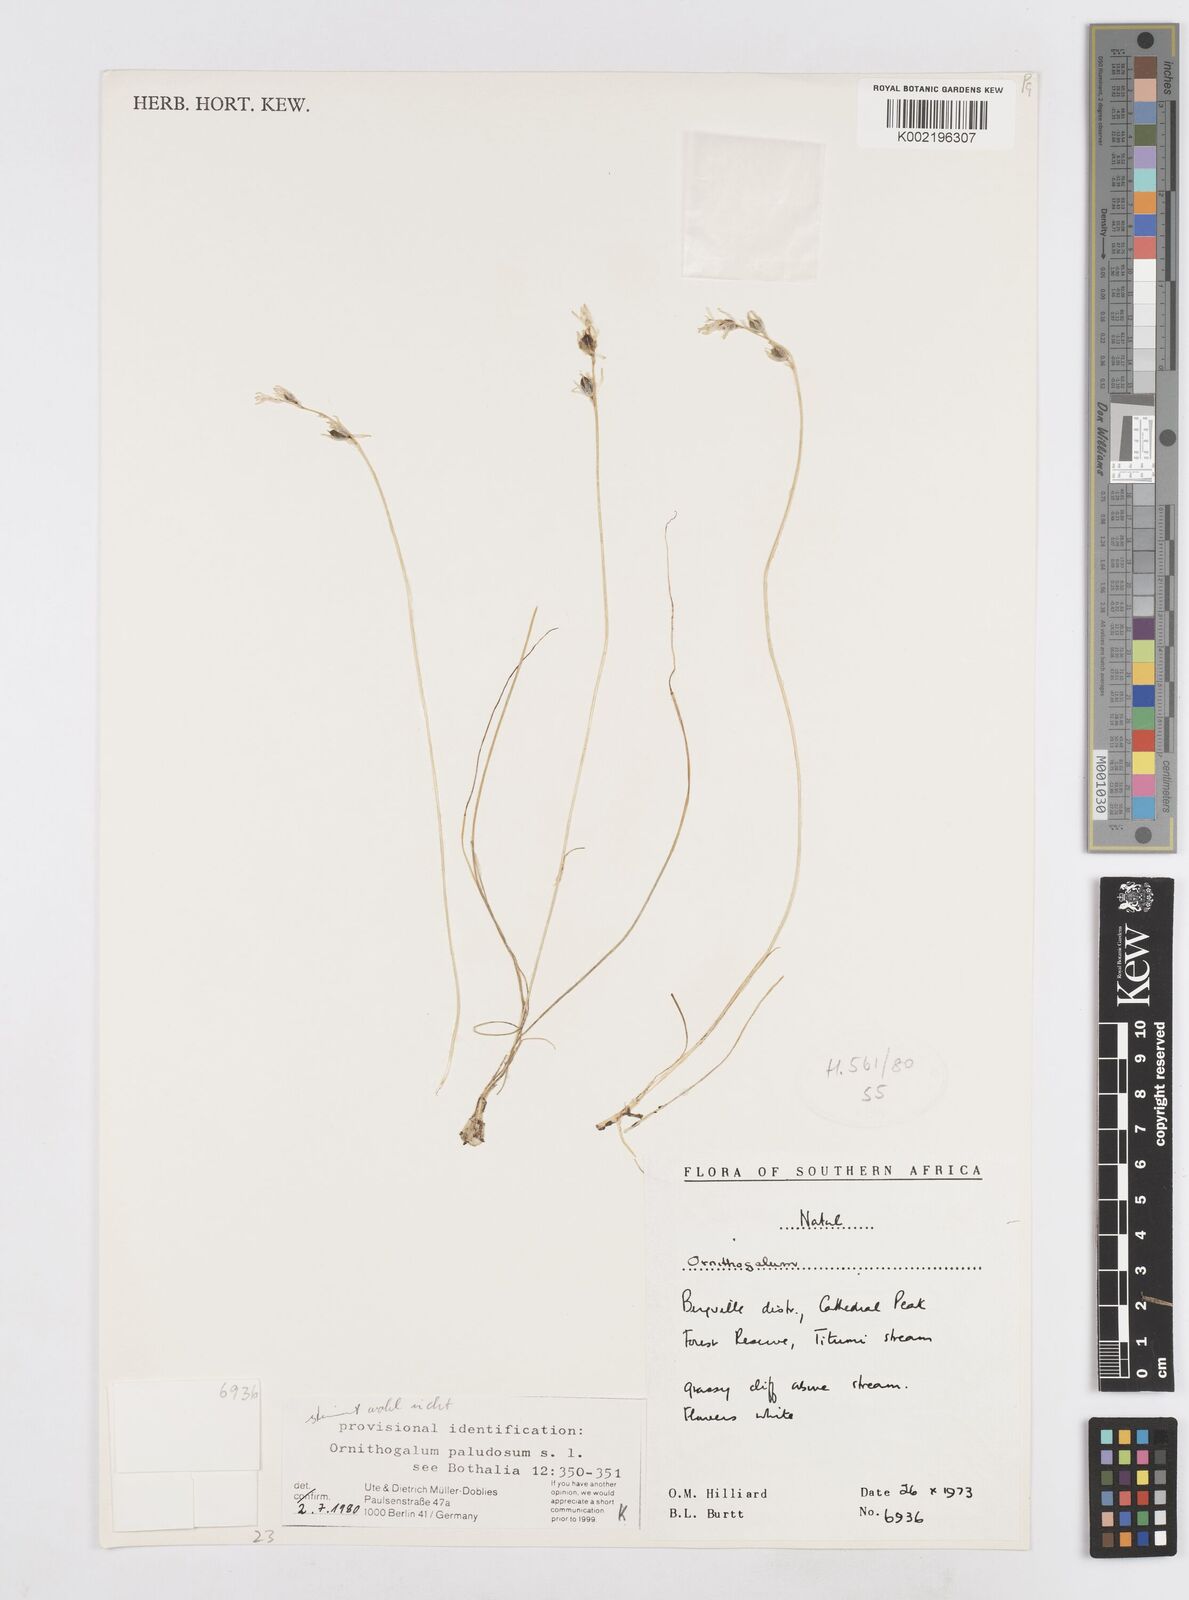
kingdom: Plantae
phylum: Tracheophyta
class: Liliopsida
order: Asparagales
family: Asparagaceae
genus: Ornithogalum
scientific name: Ornithogalum paludosum
